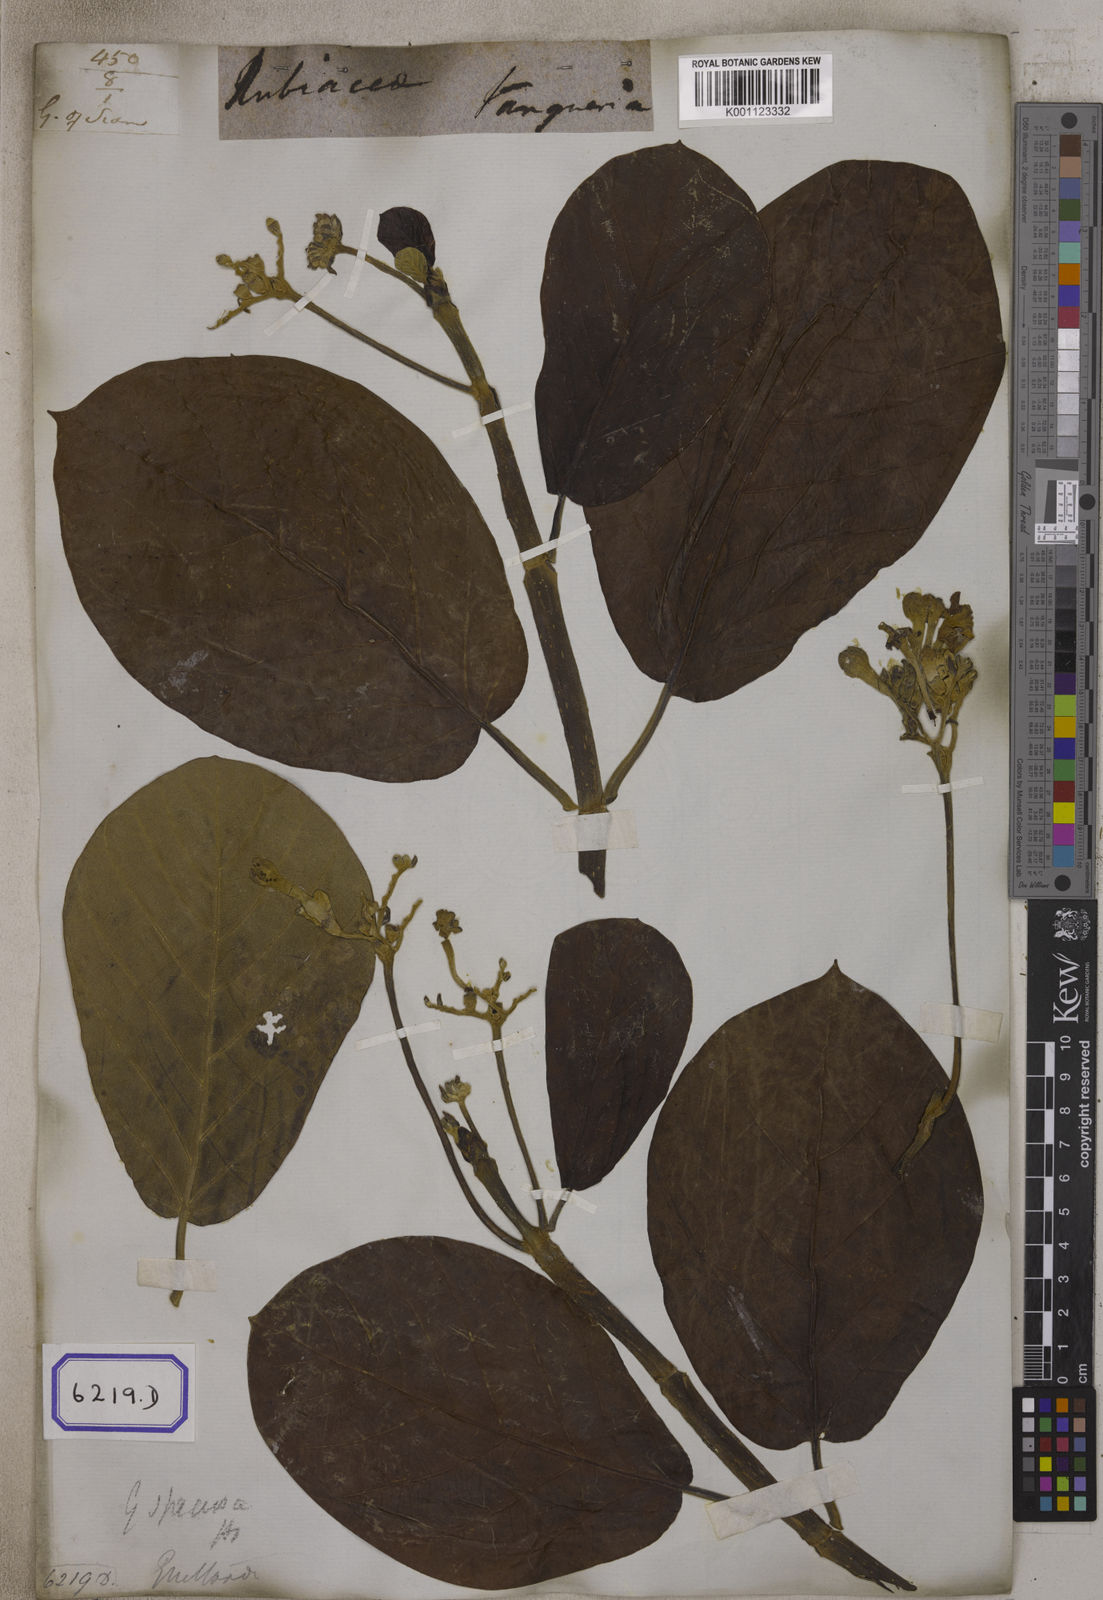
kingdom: Plantae
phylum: Tracheophyta
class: Magnoliopsida
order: Gentianales
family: Rubiaceae
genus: Guettarda
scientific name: Guettarda speciosa
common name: Sea randa
